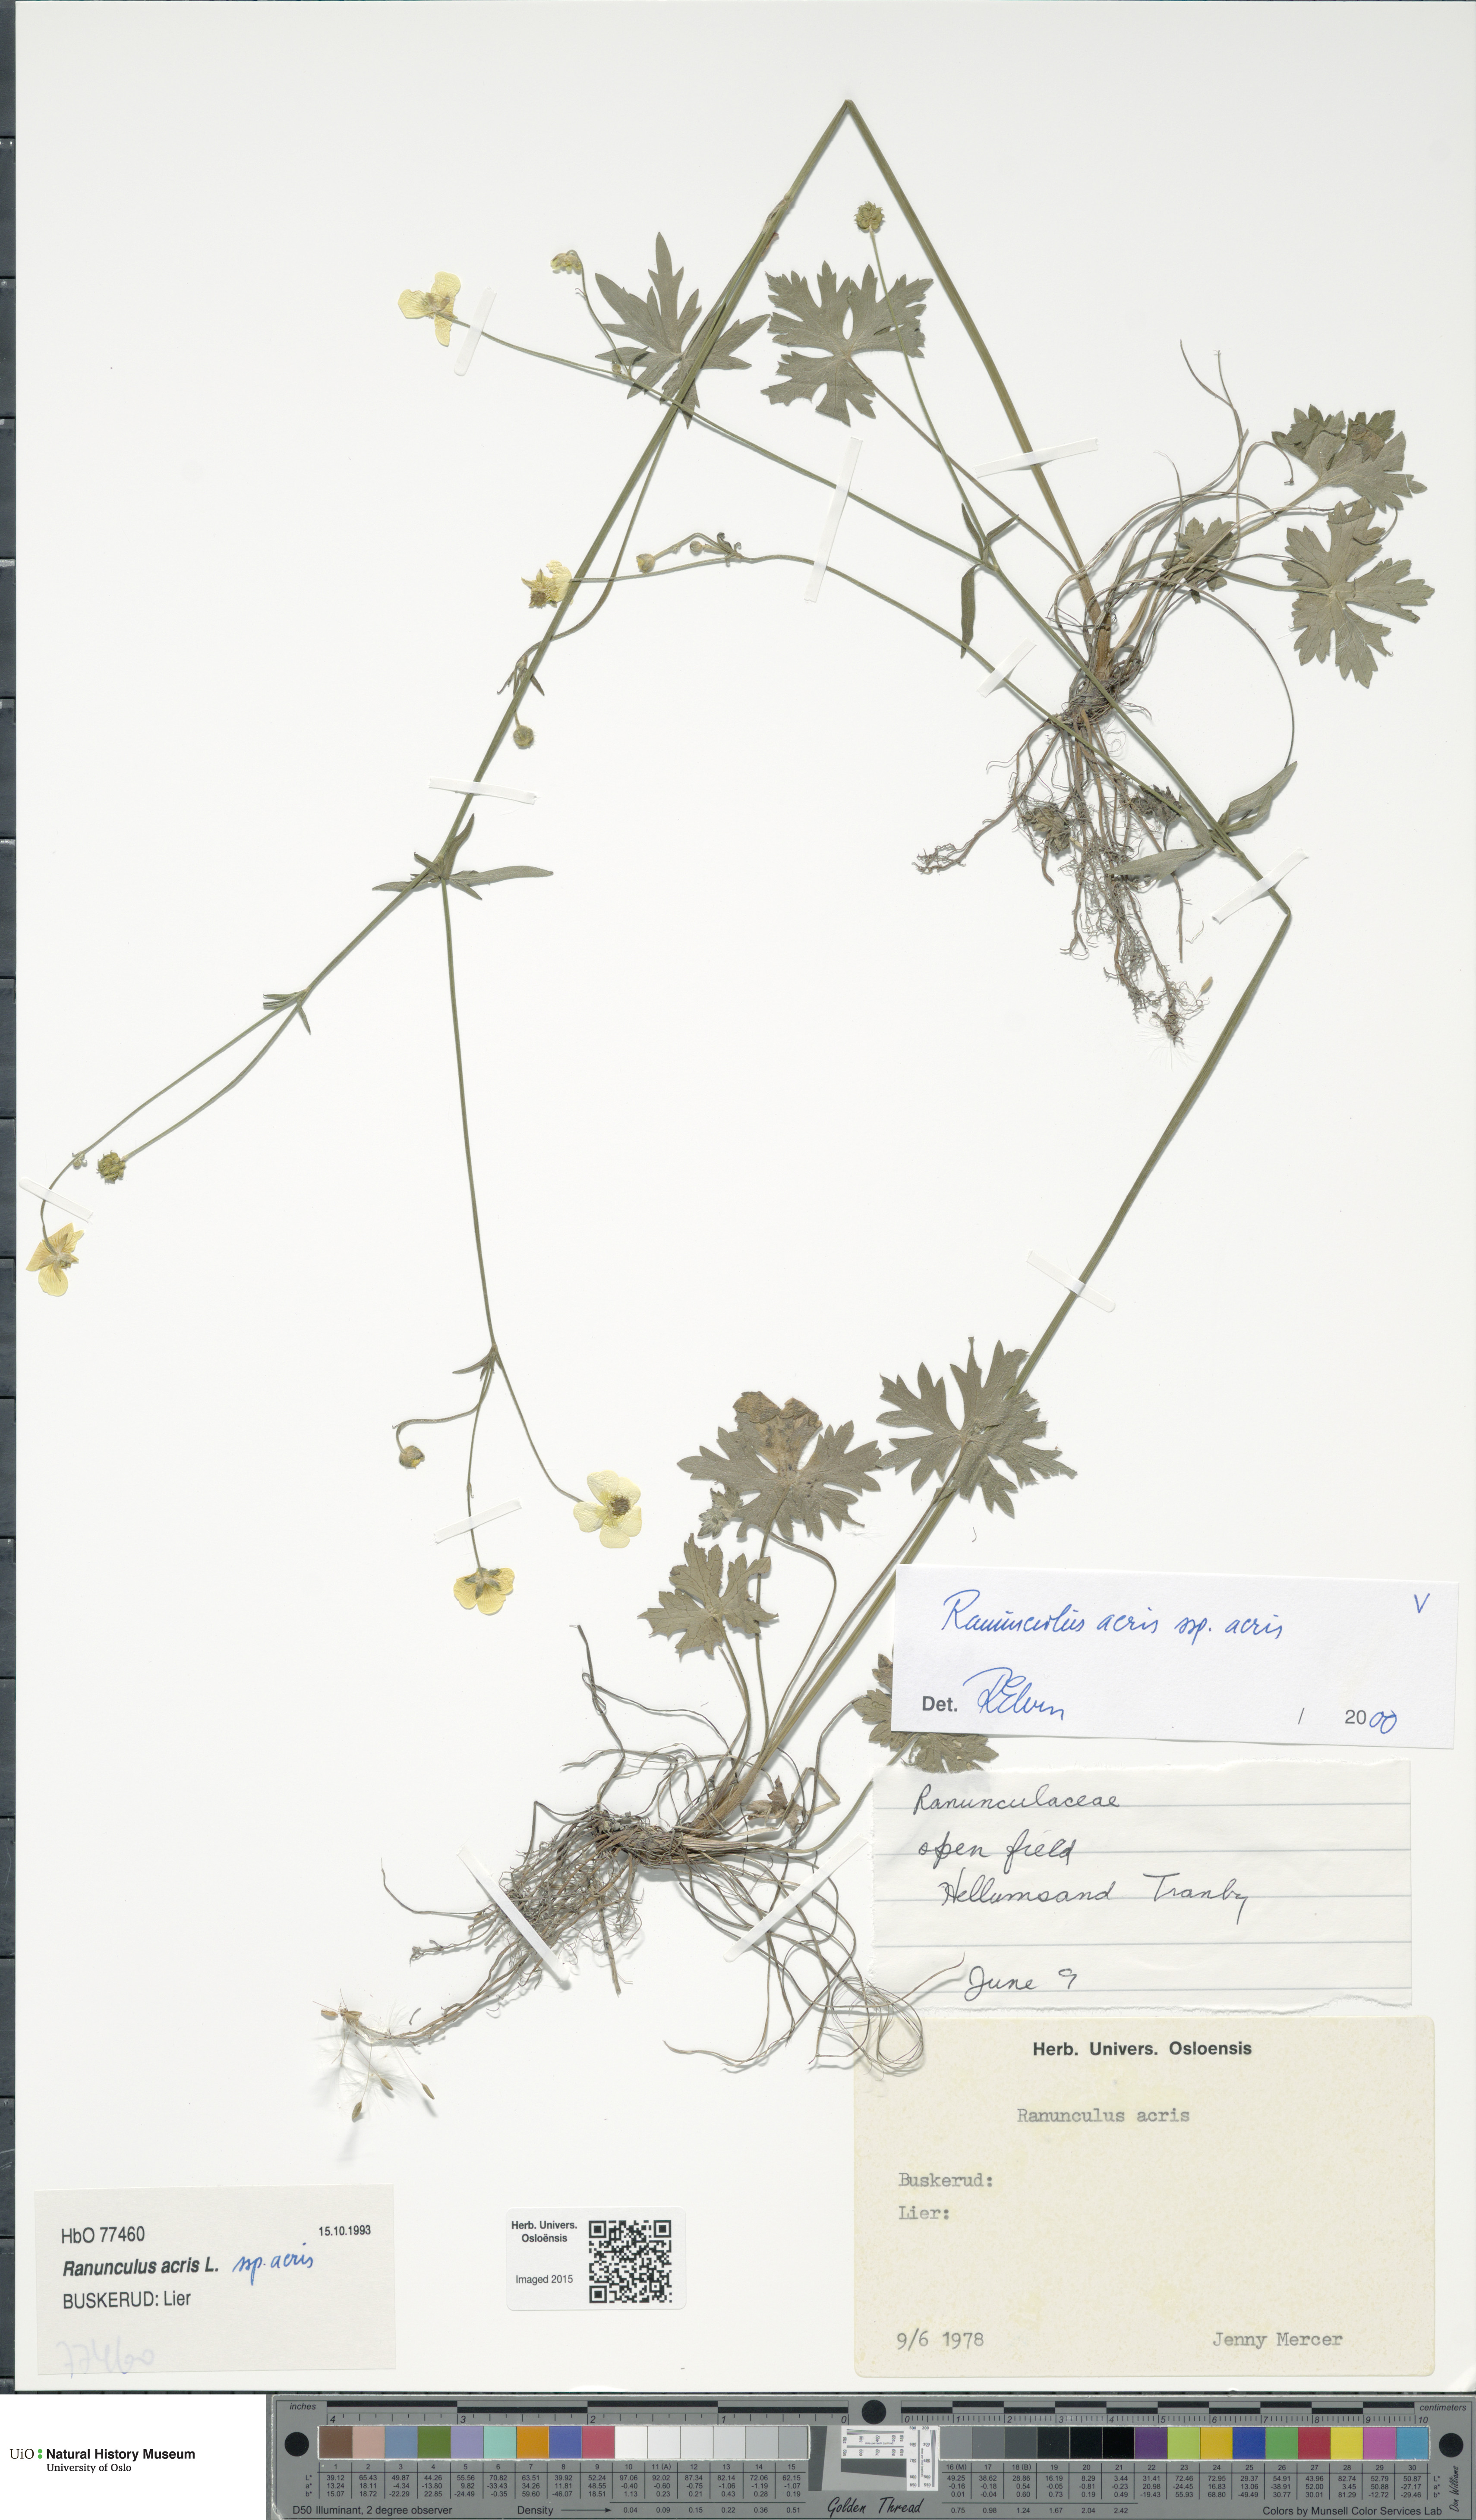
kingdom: Plantae
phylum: Tracheophyta
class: Magnoliopsida
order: Ranunculales
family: Ranunculaceae
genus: Ranunculus
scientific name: Ranunculus acris
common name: Meadow buttercup
